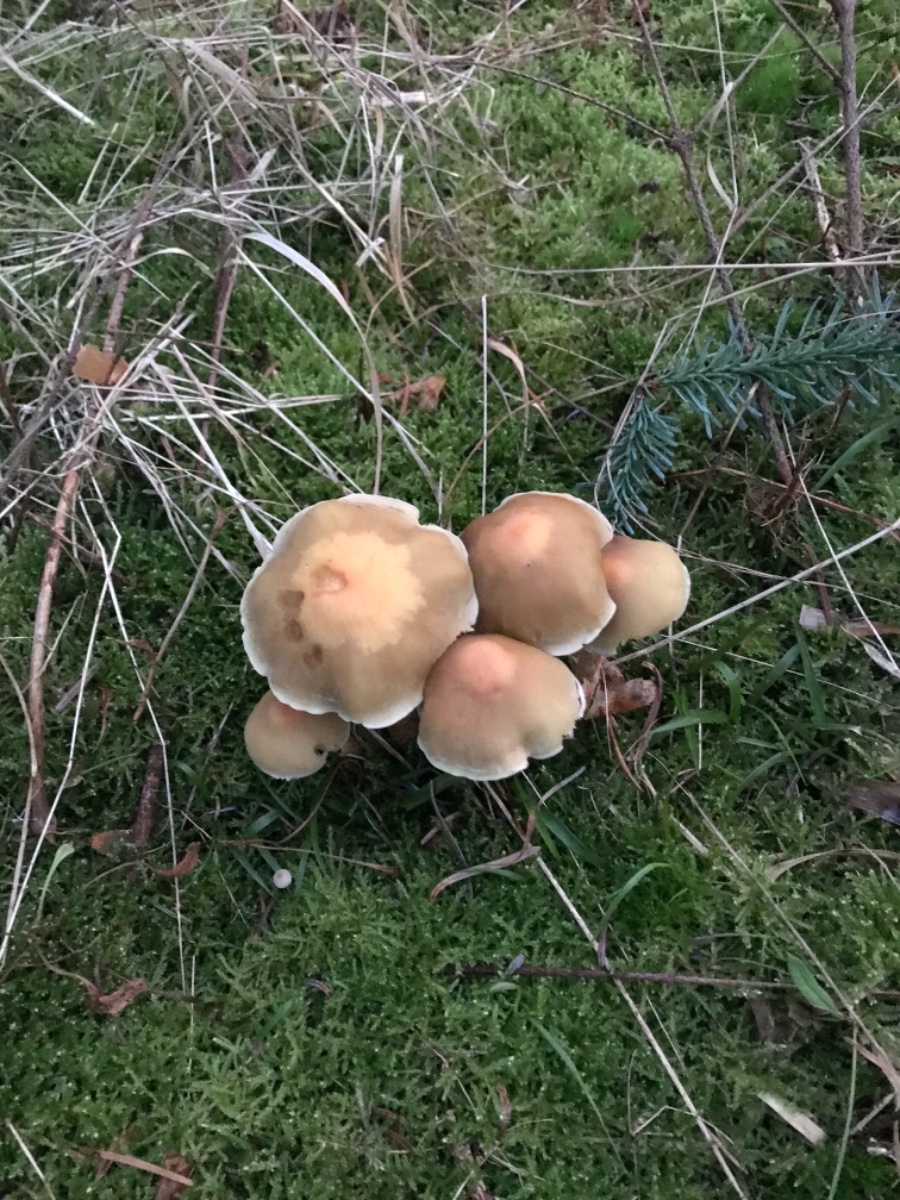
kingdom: Fungi
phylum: Basidiomycota
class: Agaricomycetes
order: Agaricales
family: Strophariaceae
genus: Hypholoma
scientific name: Hypholoma capnoides
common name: gran-svovlhat
